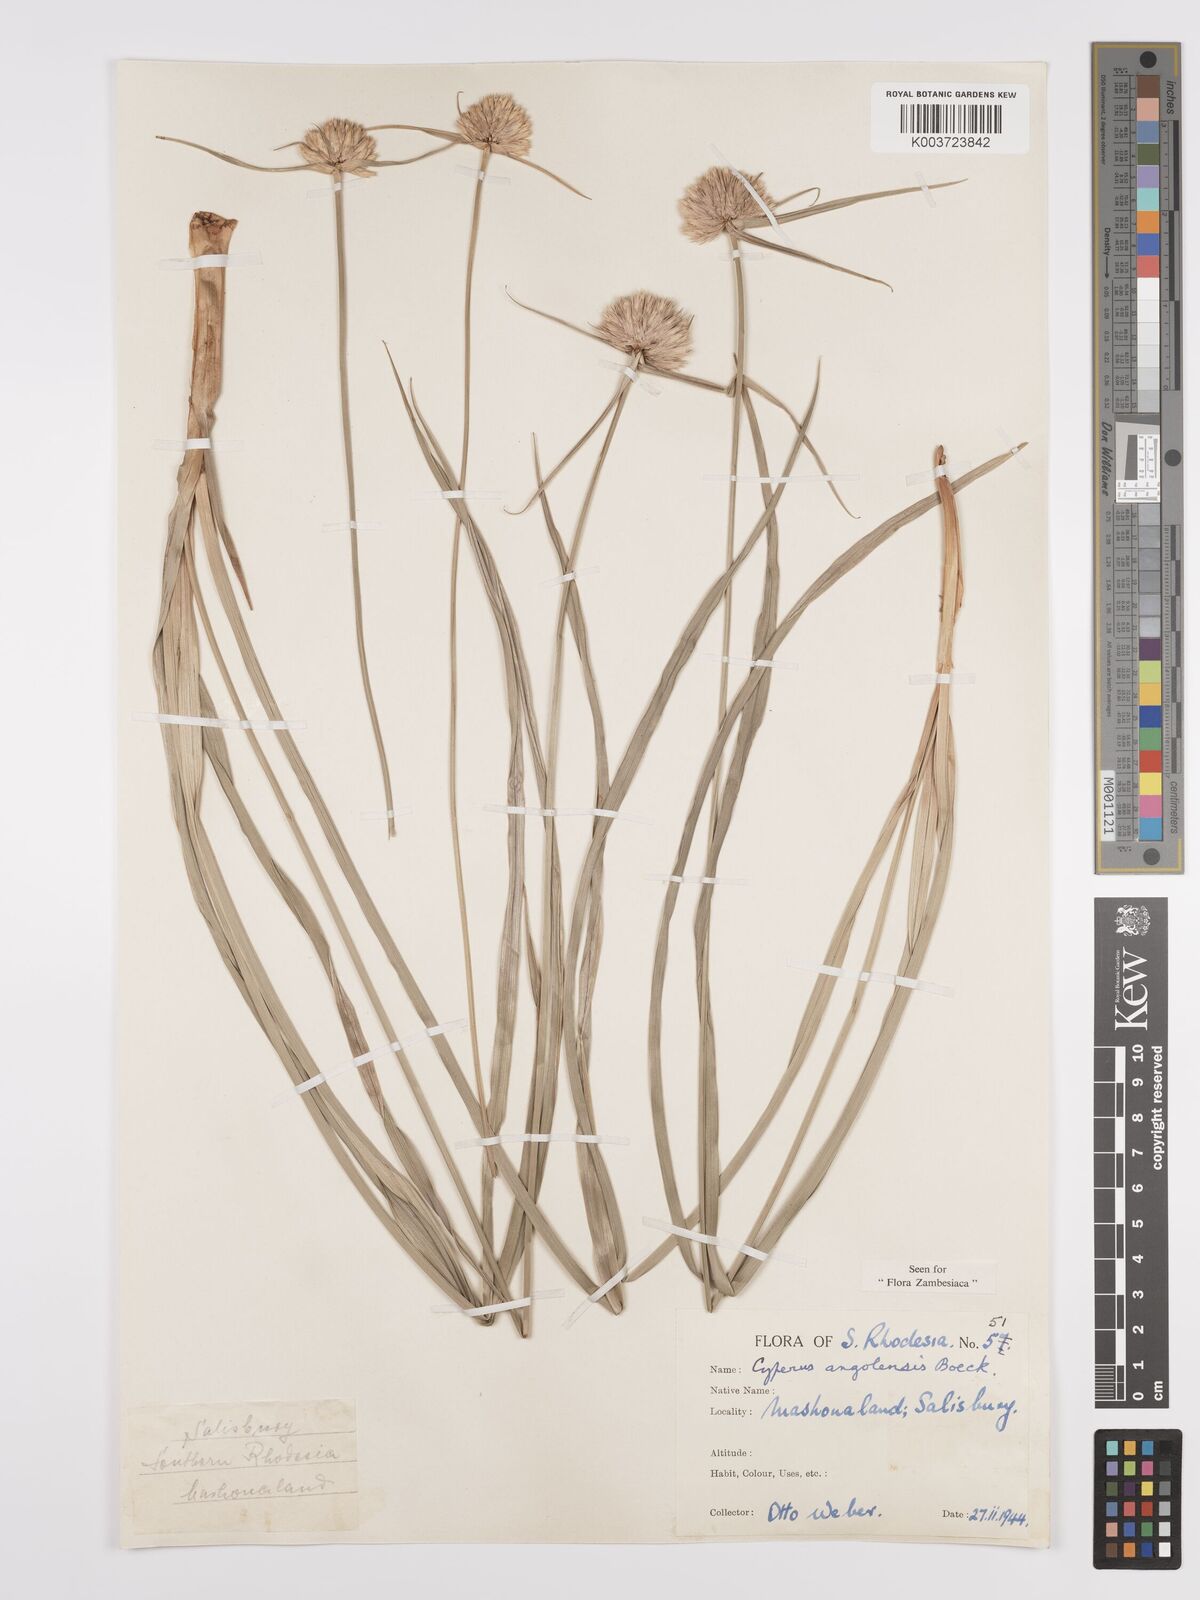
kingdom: Plantae
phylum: Tracheophyta
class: Liliopsida
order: Poales
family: Cyperaceae
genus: Cyperus
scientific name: Cyperus angolensis
